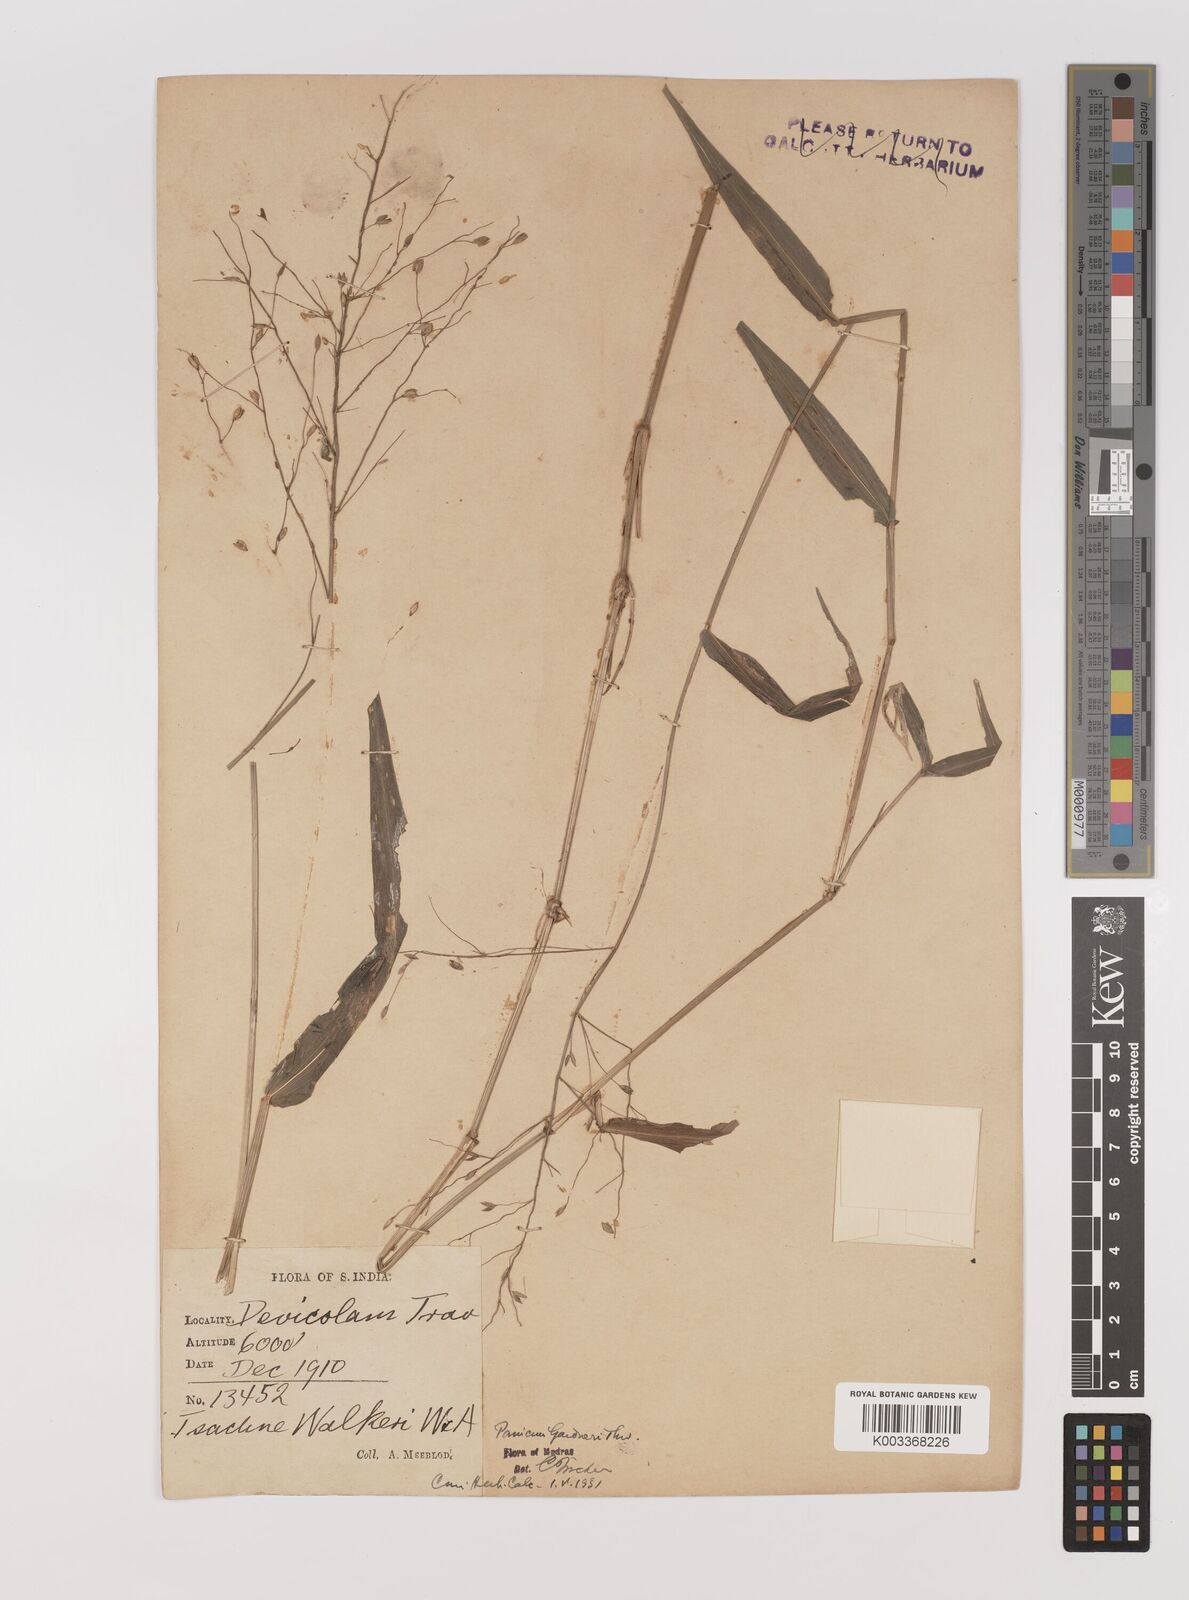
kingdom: Plantae
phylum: Tracheophyta
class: Liliopsida
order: Poales
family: Poaceae
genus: Panicum
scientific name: Panicum gardneri
